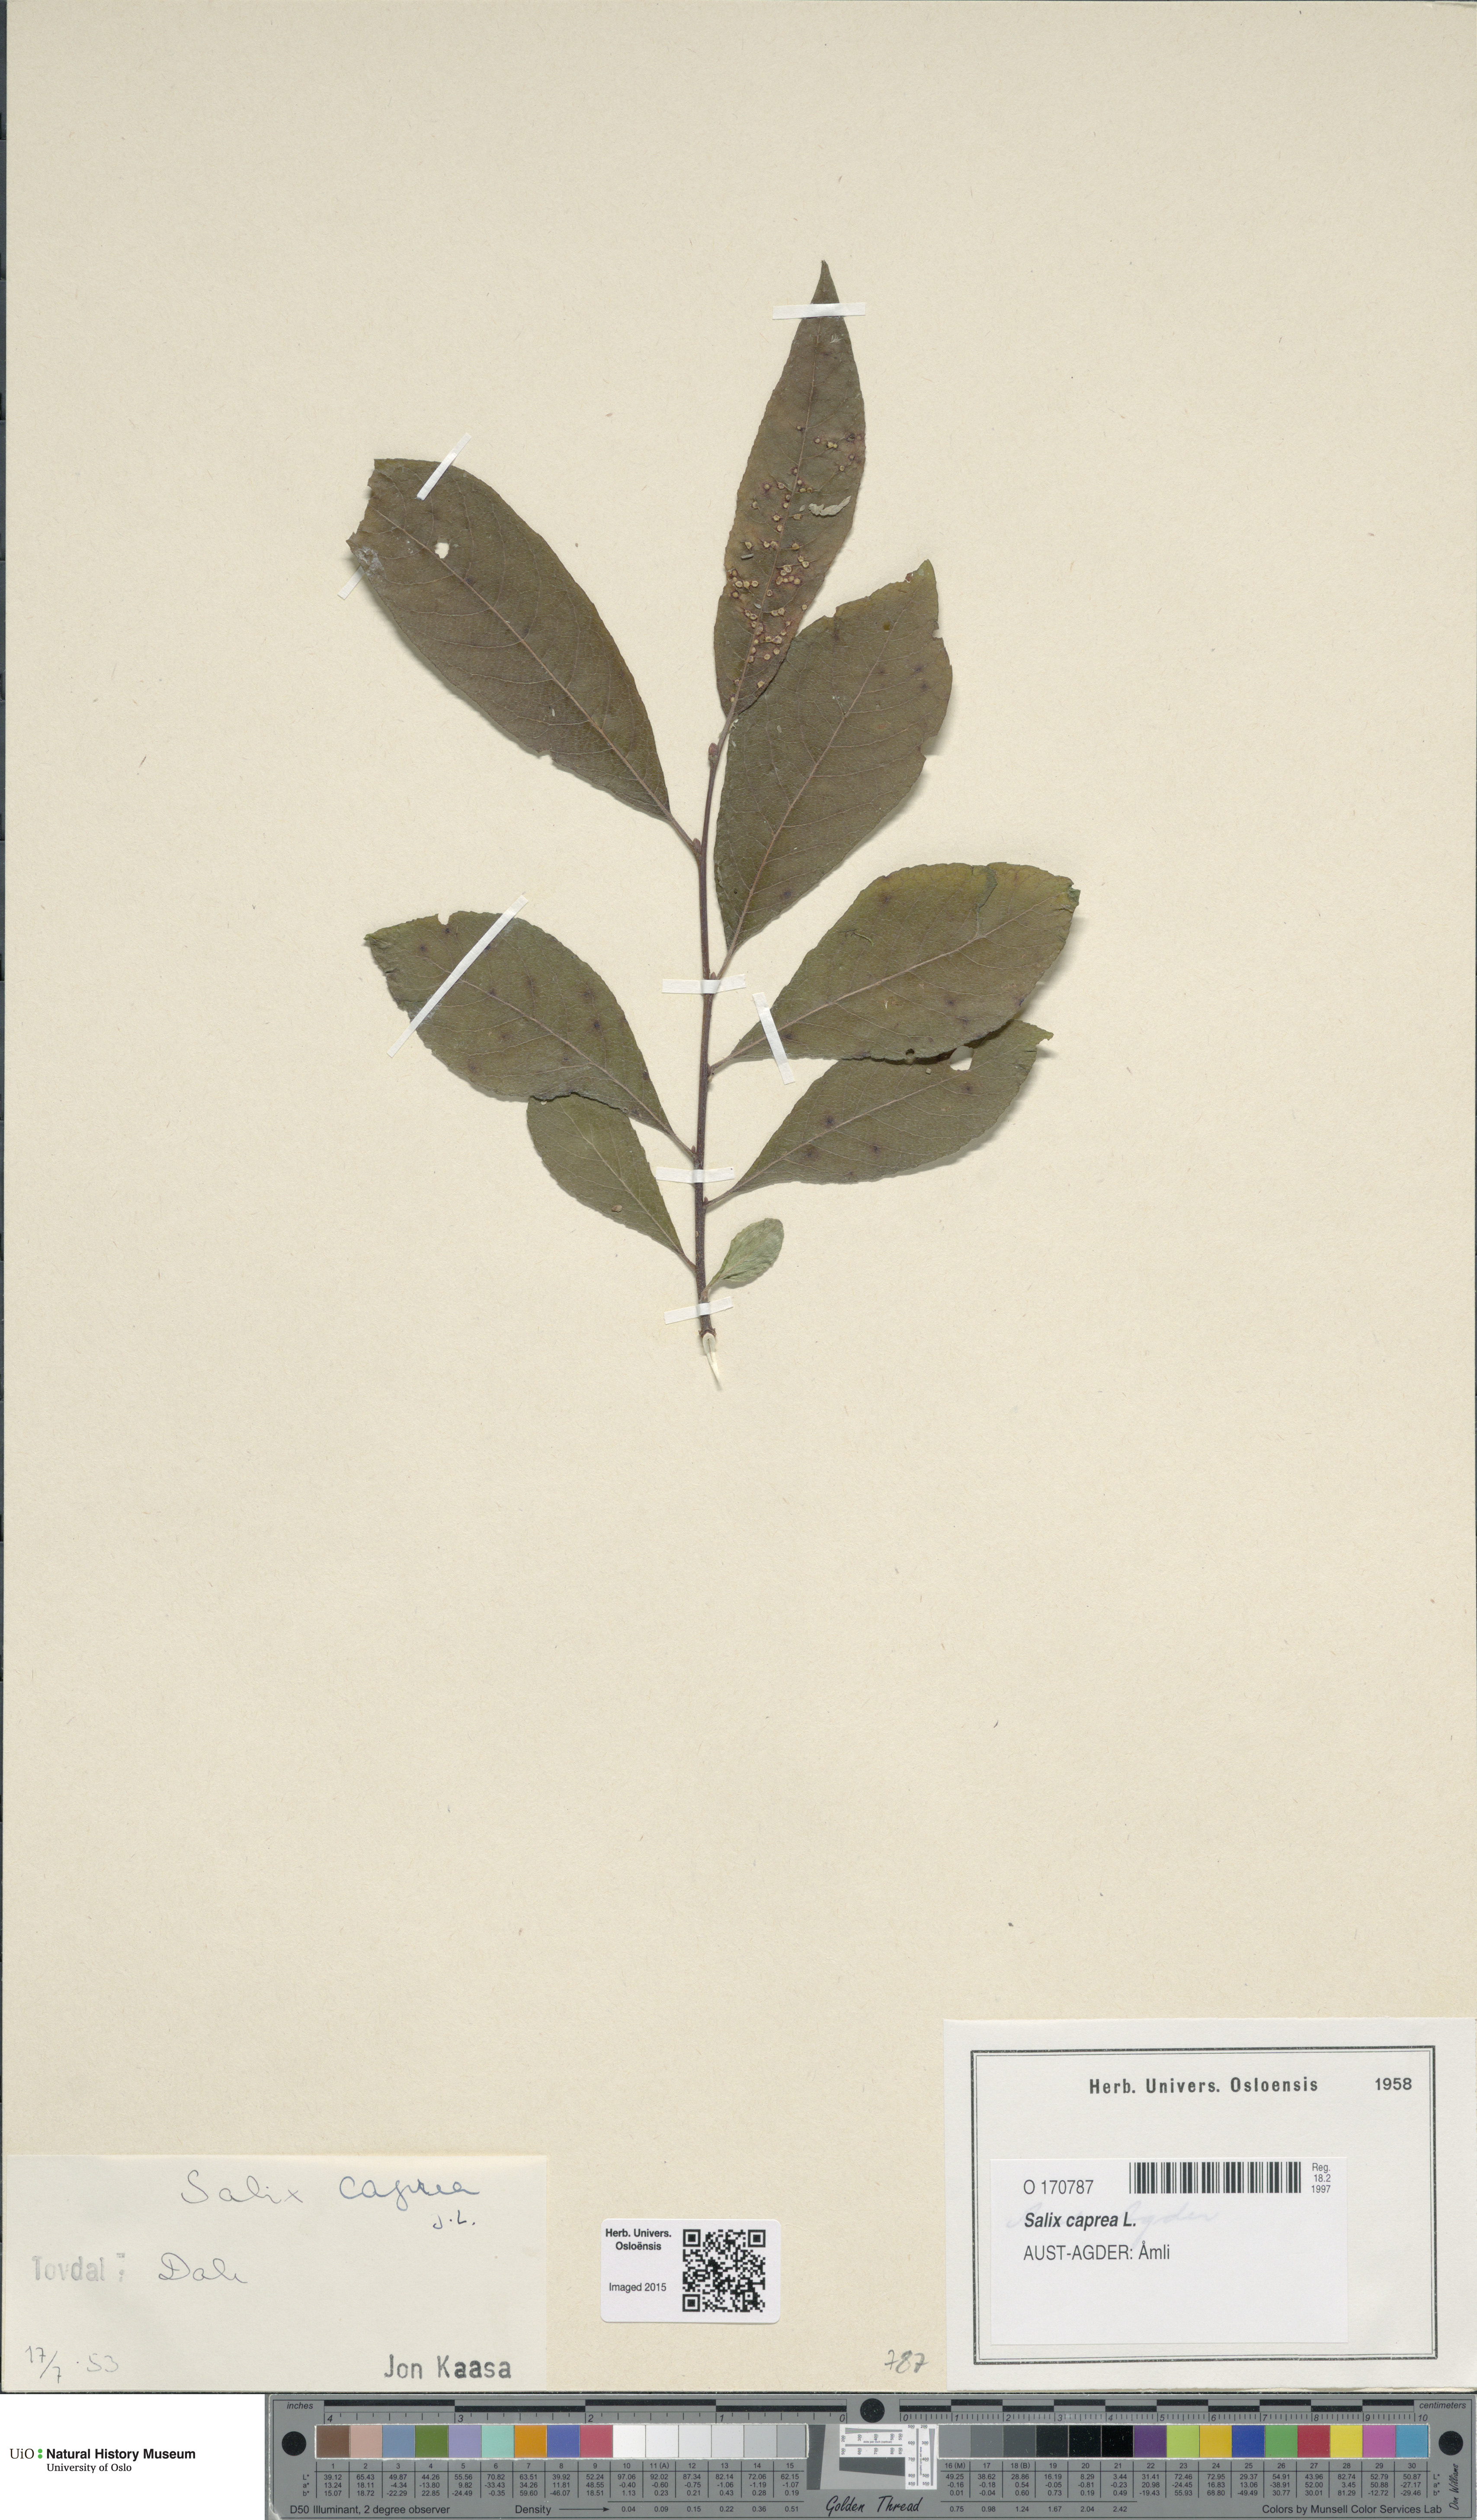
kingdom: Plantae
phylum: Tracheophyta
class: Magnoliopsida
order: Malpighiales
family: Salicaceae
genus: Salix
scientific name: Salix caprea
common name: Goat willow
